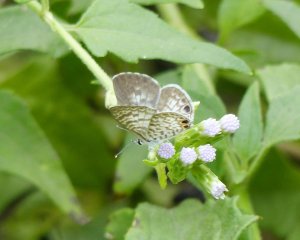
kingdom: Animalia
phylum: Arthropoda
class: Insecta
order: Lepidoptera
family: Lycaenidae
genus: Leptotes
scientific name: Leptotes cassius
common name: Cassius Blue
